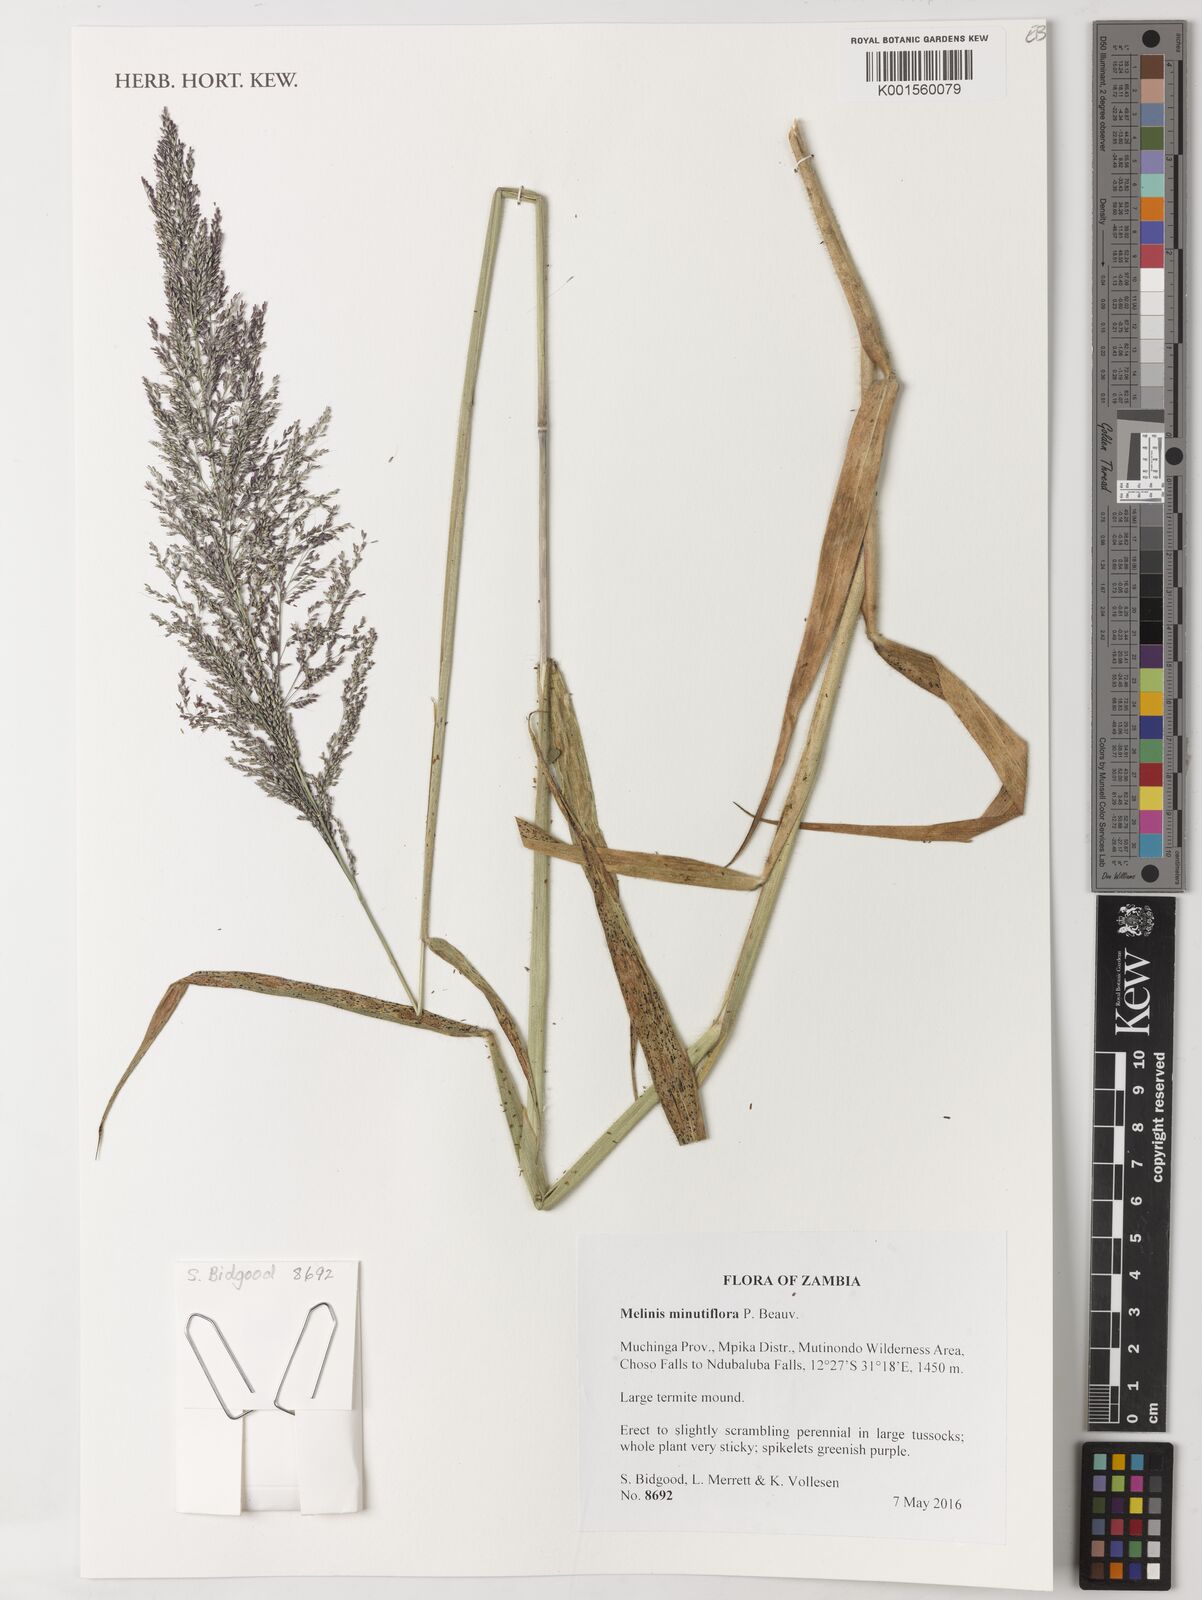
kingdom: Plantae
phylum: Tracheophyta
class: Liliopsida
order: Poales
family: Poaceae
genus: Melinis
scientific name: Melinis minutiflora
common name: Molassesgrass
